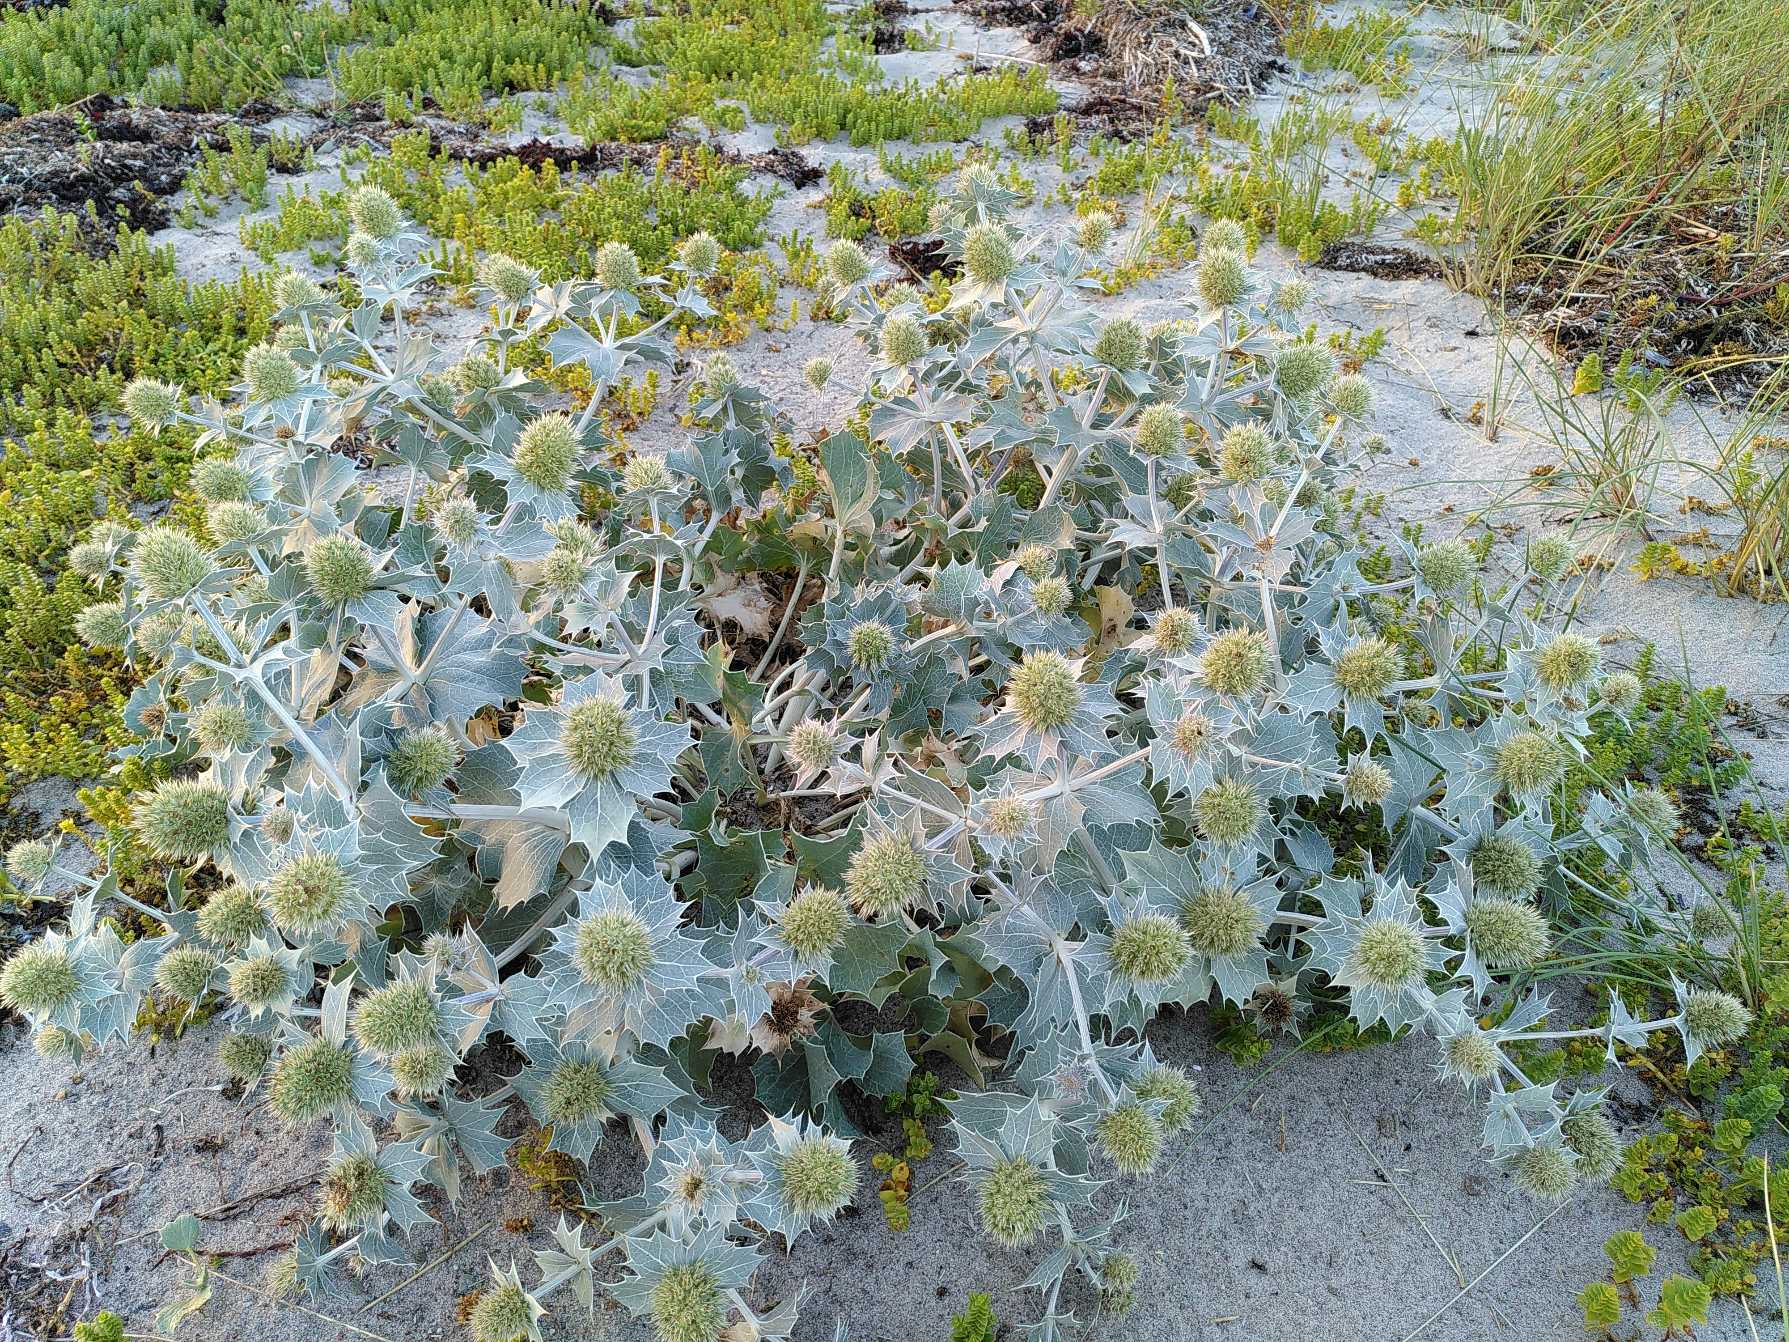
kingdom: Plantae
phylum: Tracheophyta
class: Magnoliopsida
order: Apiales
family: Apiaceae
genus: Eryngium
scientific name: Eryngium maritimum
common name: Strand-mandstro
